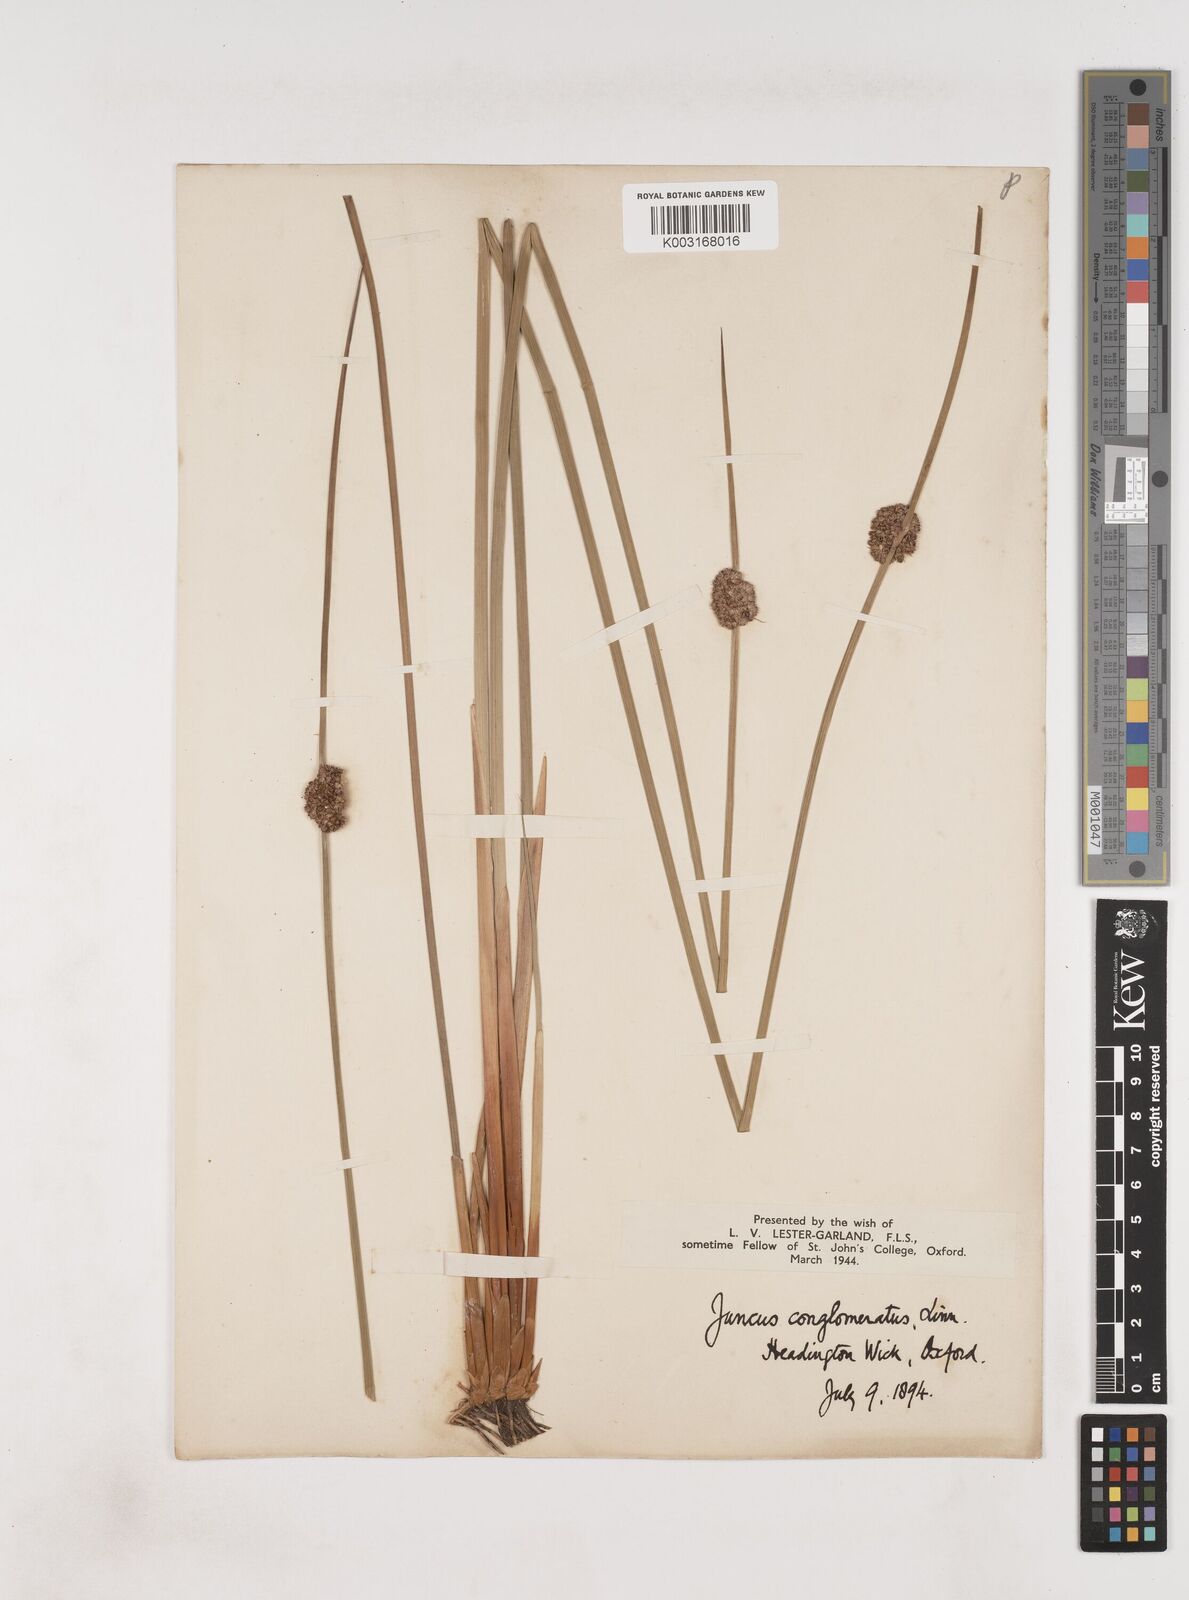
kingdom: Plantae
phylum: Tracheophyta
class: Liliopsida
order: Poales
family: Juncaceae
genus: Juncus
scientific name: Juncus conglomeratus
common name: Compact rush
